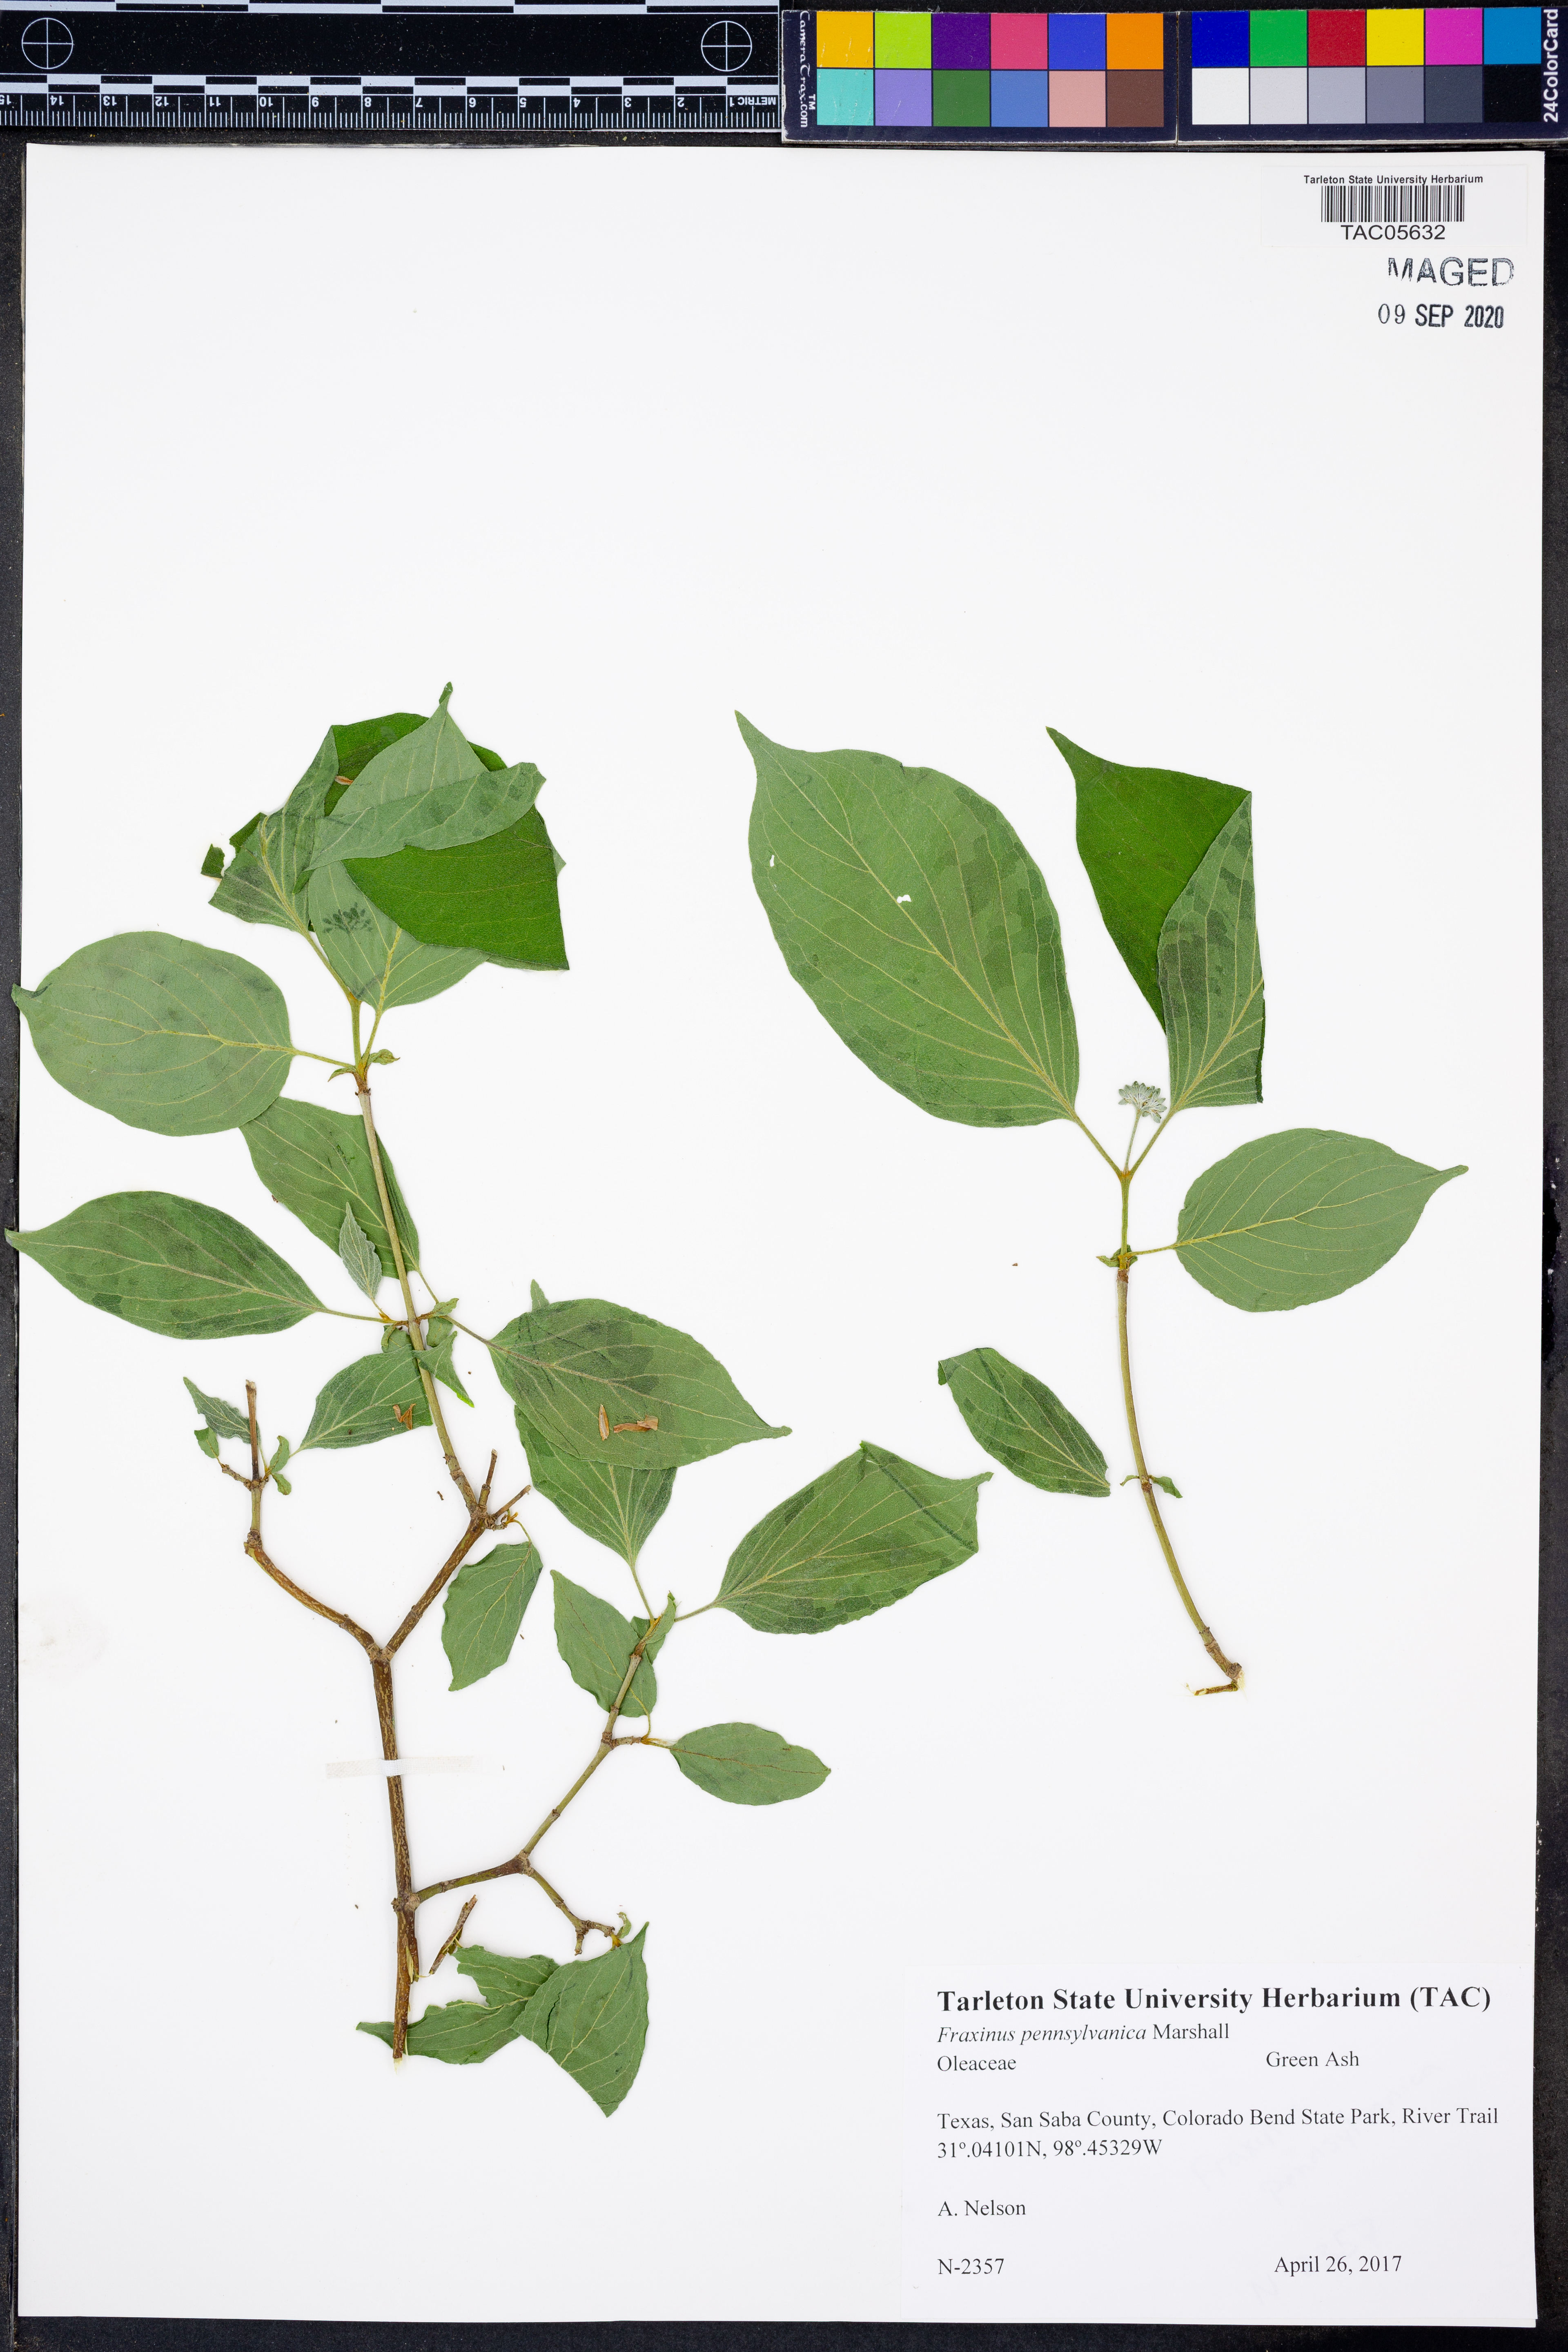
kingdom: Plantae
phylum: Tracheophyta
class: Magnoliopsida
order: Lamiales
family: Oleaceae
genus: Fraxinus
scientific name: Fraxinus pennsylvanica
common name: Green ash
